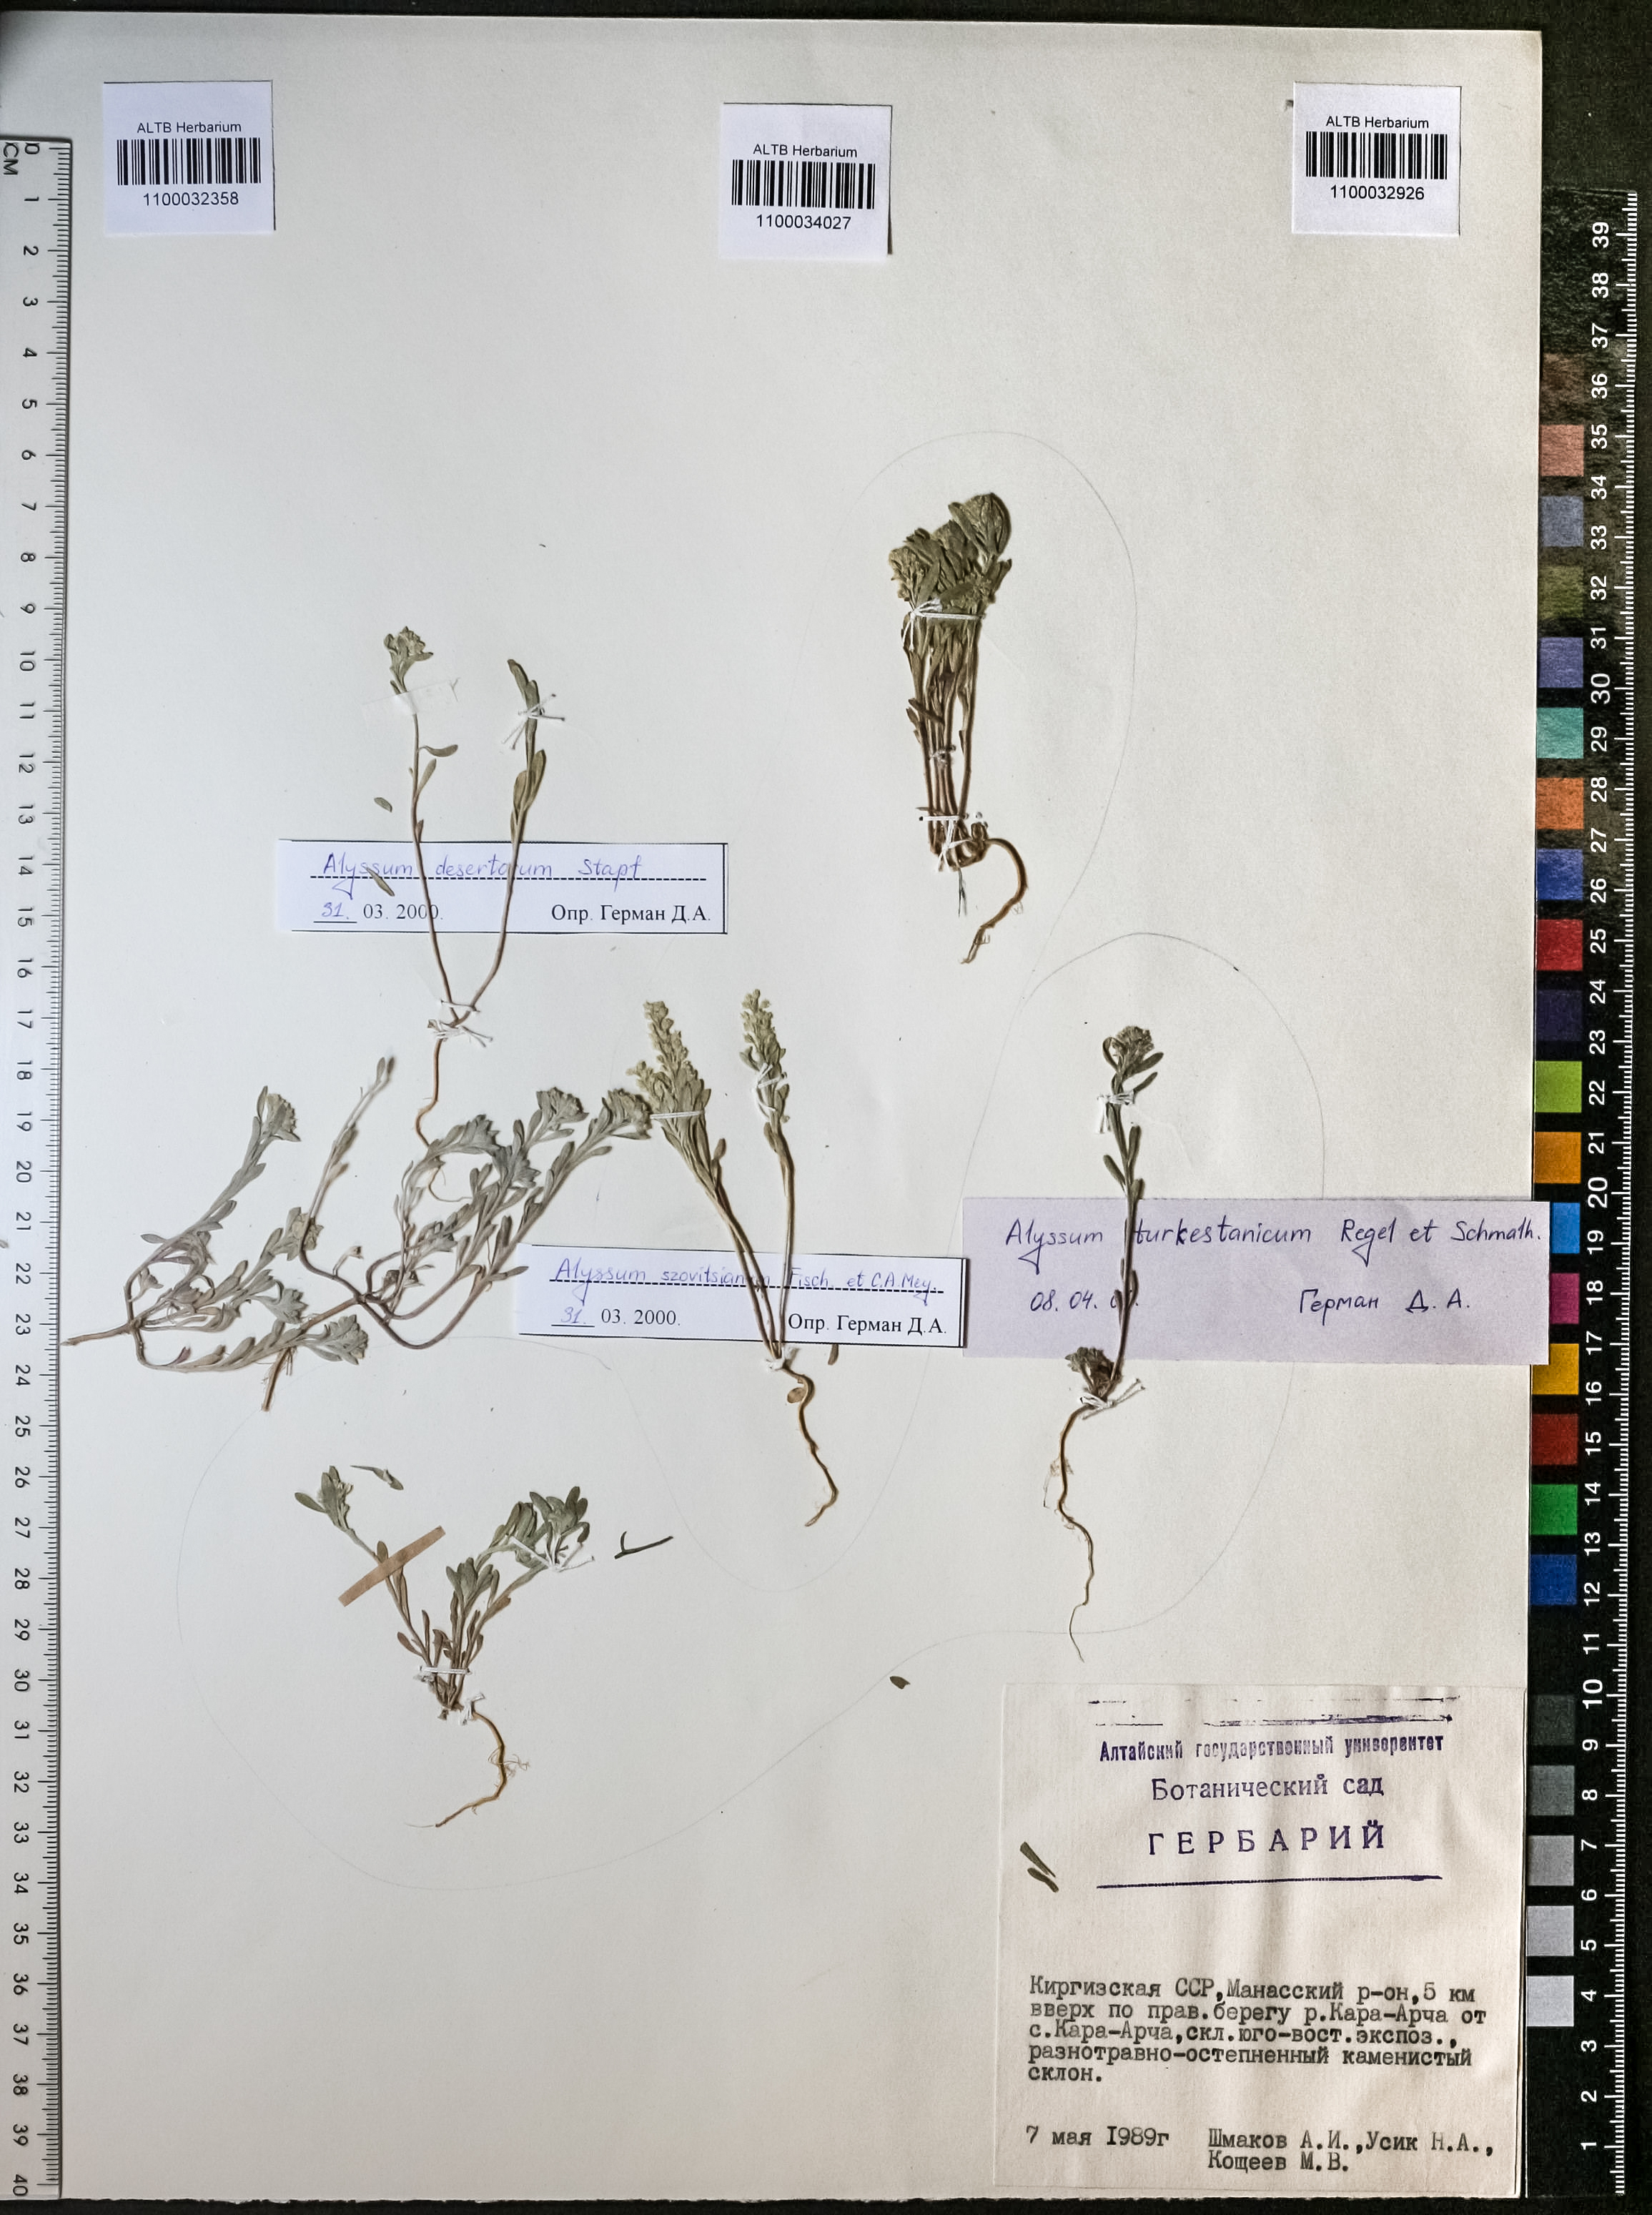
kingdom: Plantae
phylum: Tracheophyta
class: Magnoliopsida
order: Brassicales
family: Brassicaceae
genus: Alyssum
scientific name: Alyssum szovitsianum
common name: Szowits' madwort
